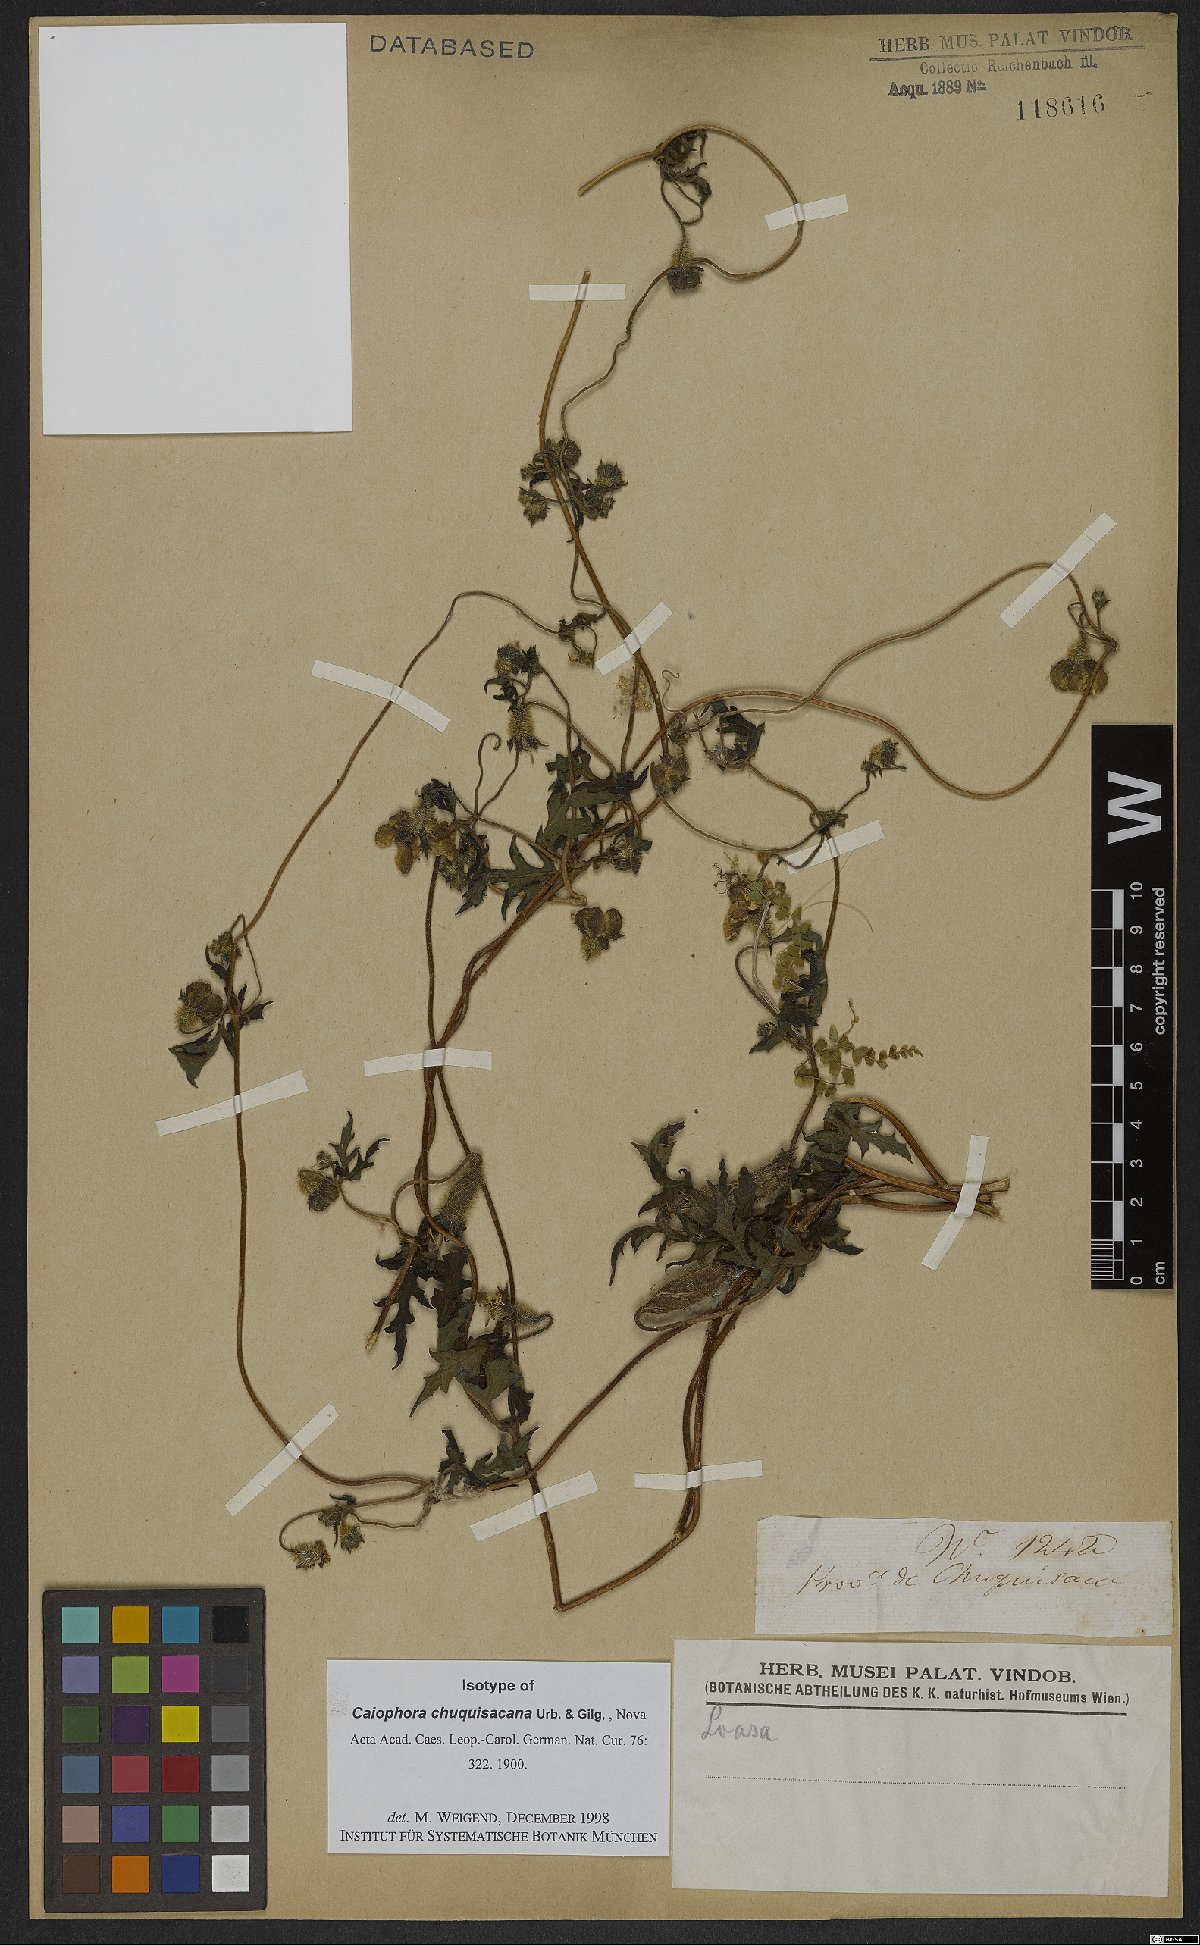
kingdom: Plantae
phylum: Tracheophyta
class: Magnoliopsida
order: Cornales
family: Loasaceae
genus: Caiophora
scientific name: Caiophora chuquitensis
